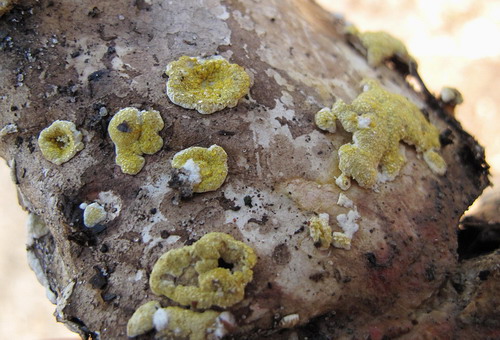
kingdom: Fungi
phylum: Ascomycota
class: Sordariomycetes
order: Hypocreales
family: Hypocreaceae
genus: Trichoderma
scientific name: Trichoderma pulvinatum
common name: snyltende kødkerne
